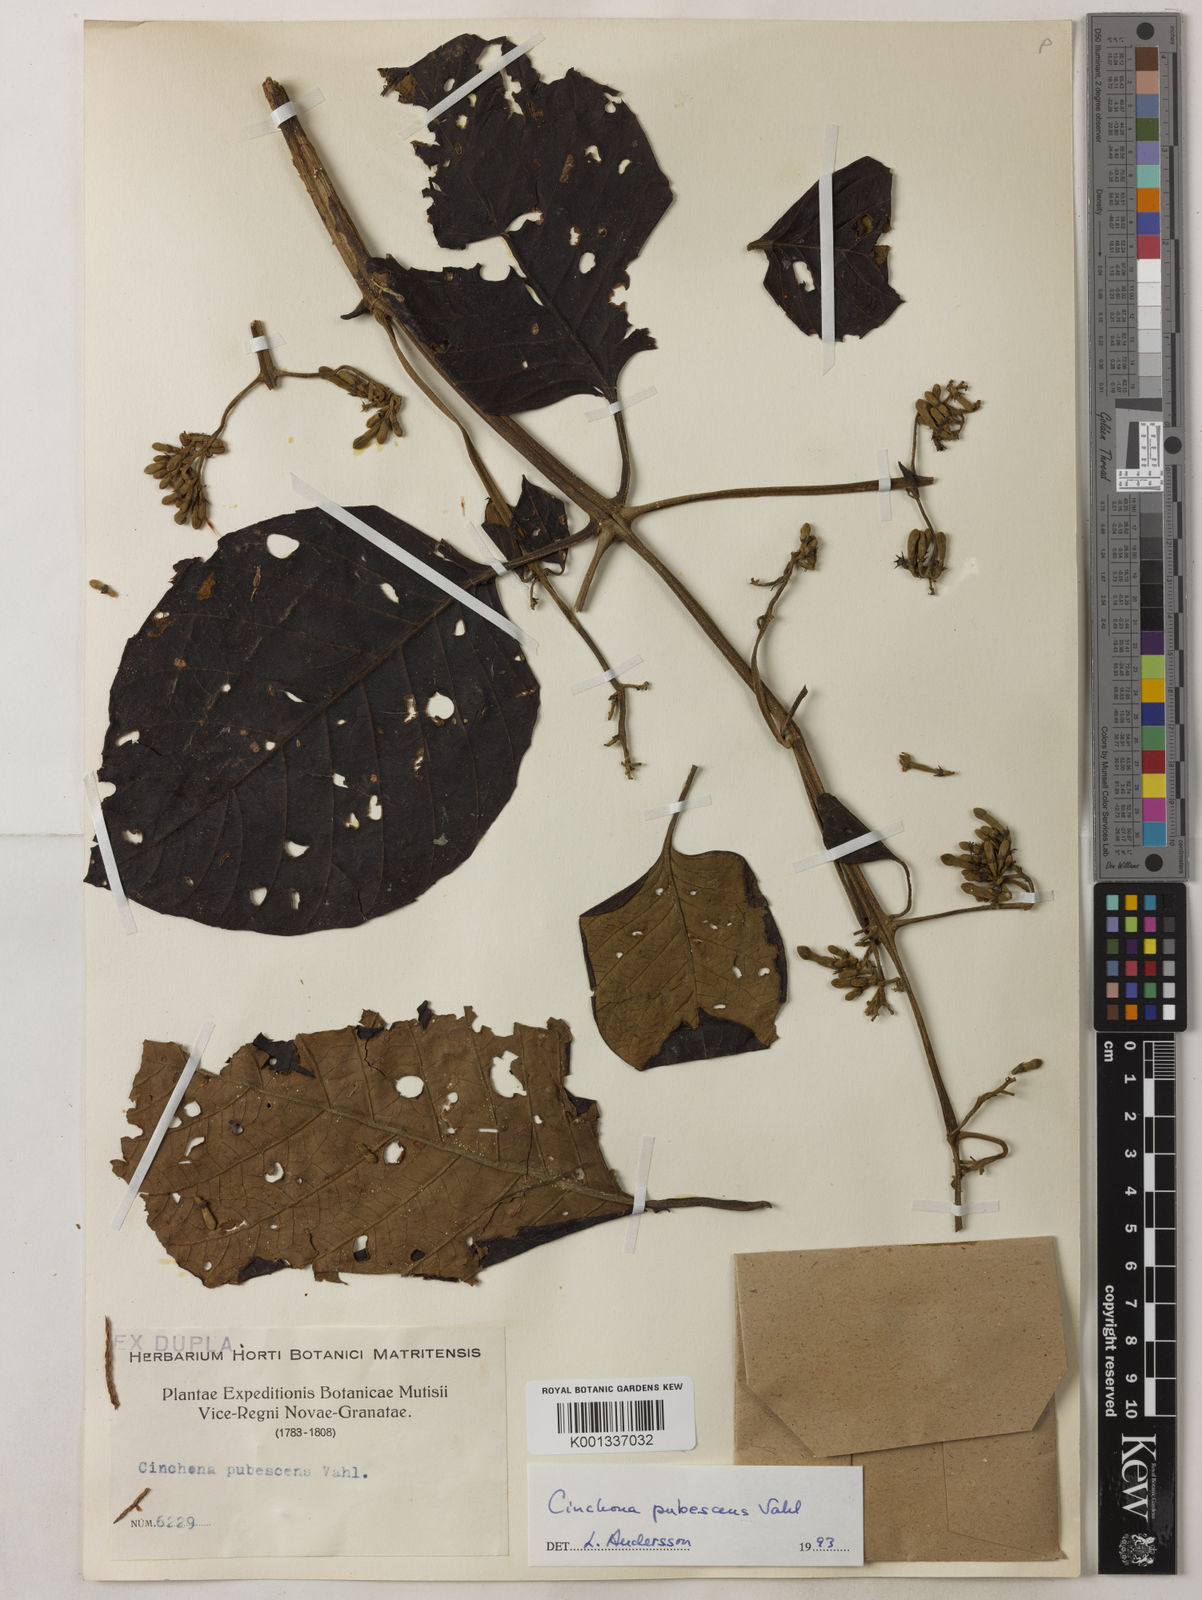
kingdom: Plantae
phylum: Tracheophyta
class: Magnoliopsida
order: Gentianales
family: Rubiaceae
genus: Cinchona
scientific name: Cinchona pubescens
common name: Quinine
